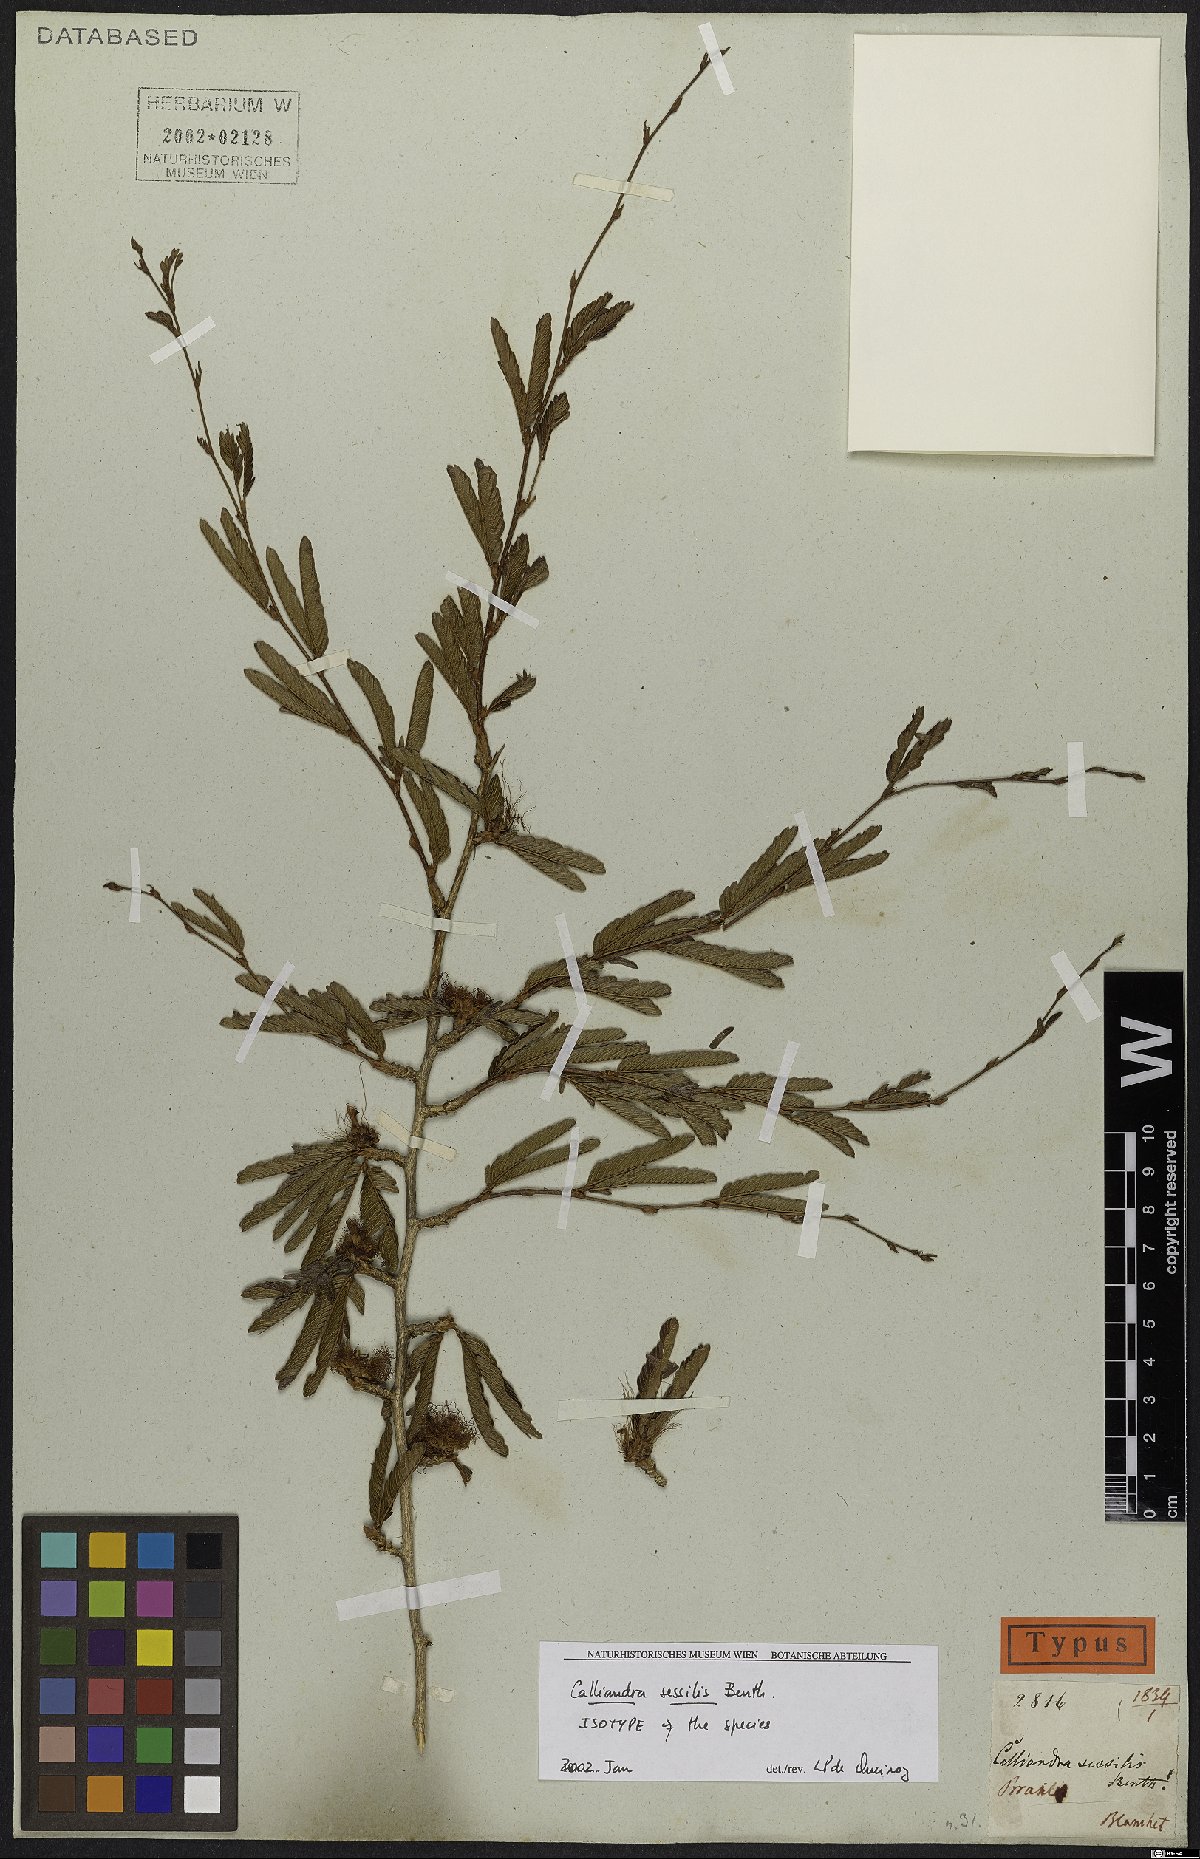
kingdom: Plantae
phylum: Tracheophyta
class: Magnoliopsida
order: Fabales
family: Fabaceae
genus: Calliandra
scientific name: Calliandra sessilis
